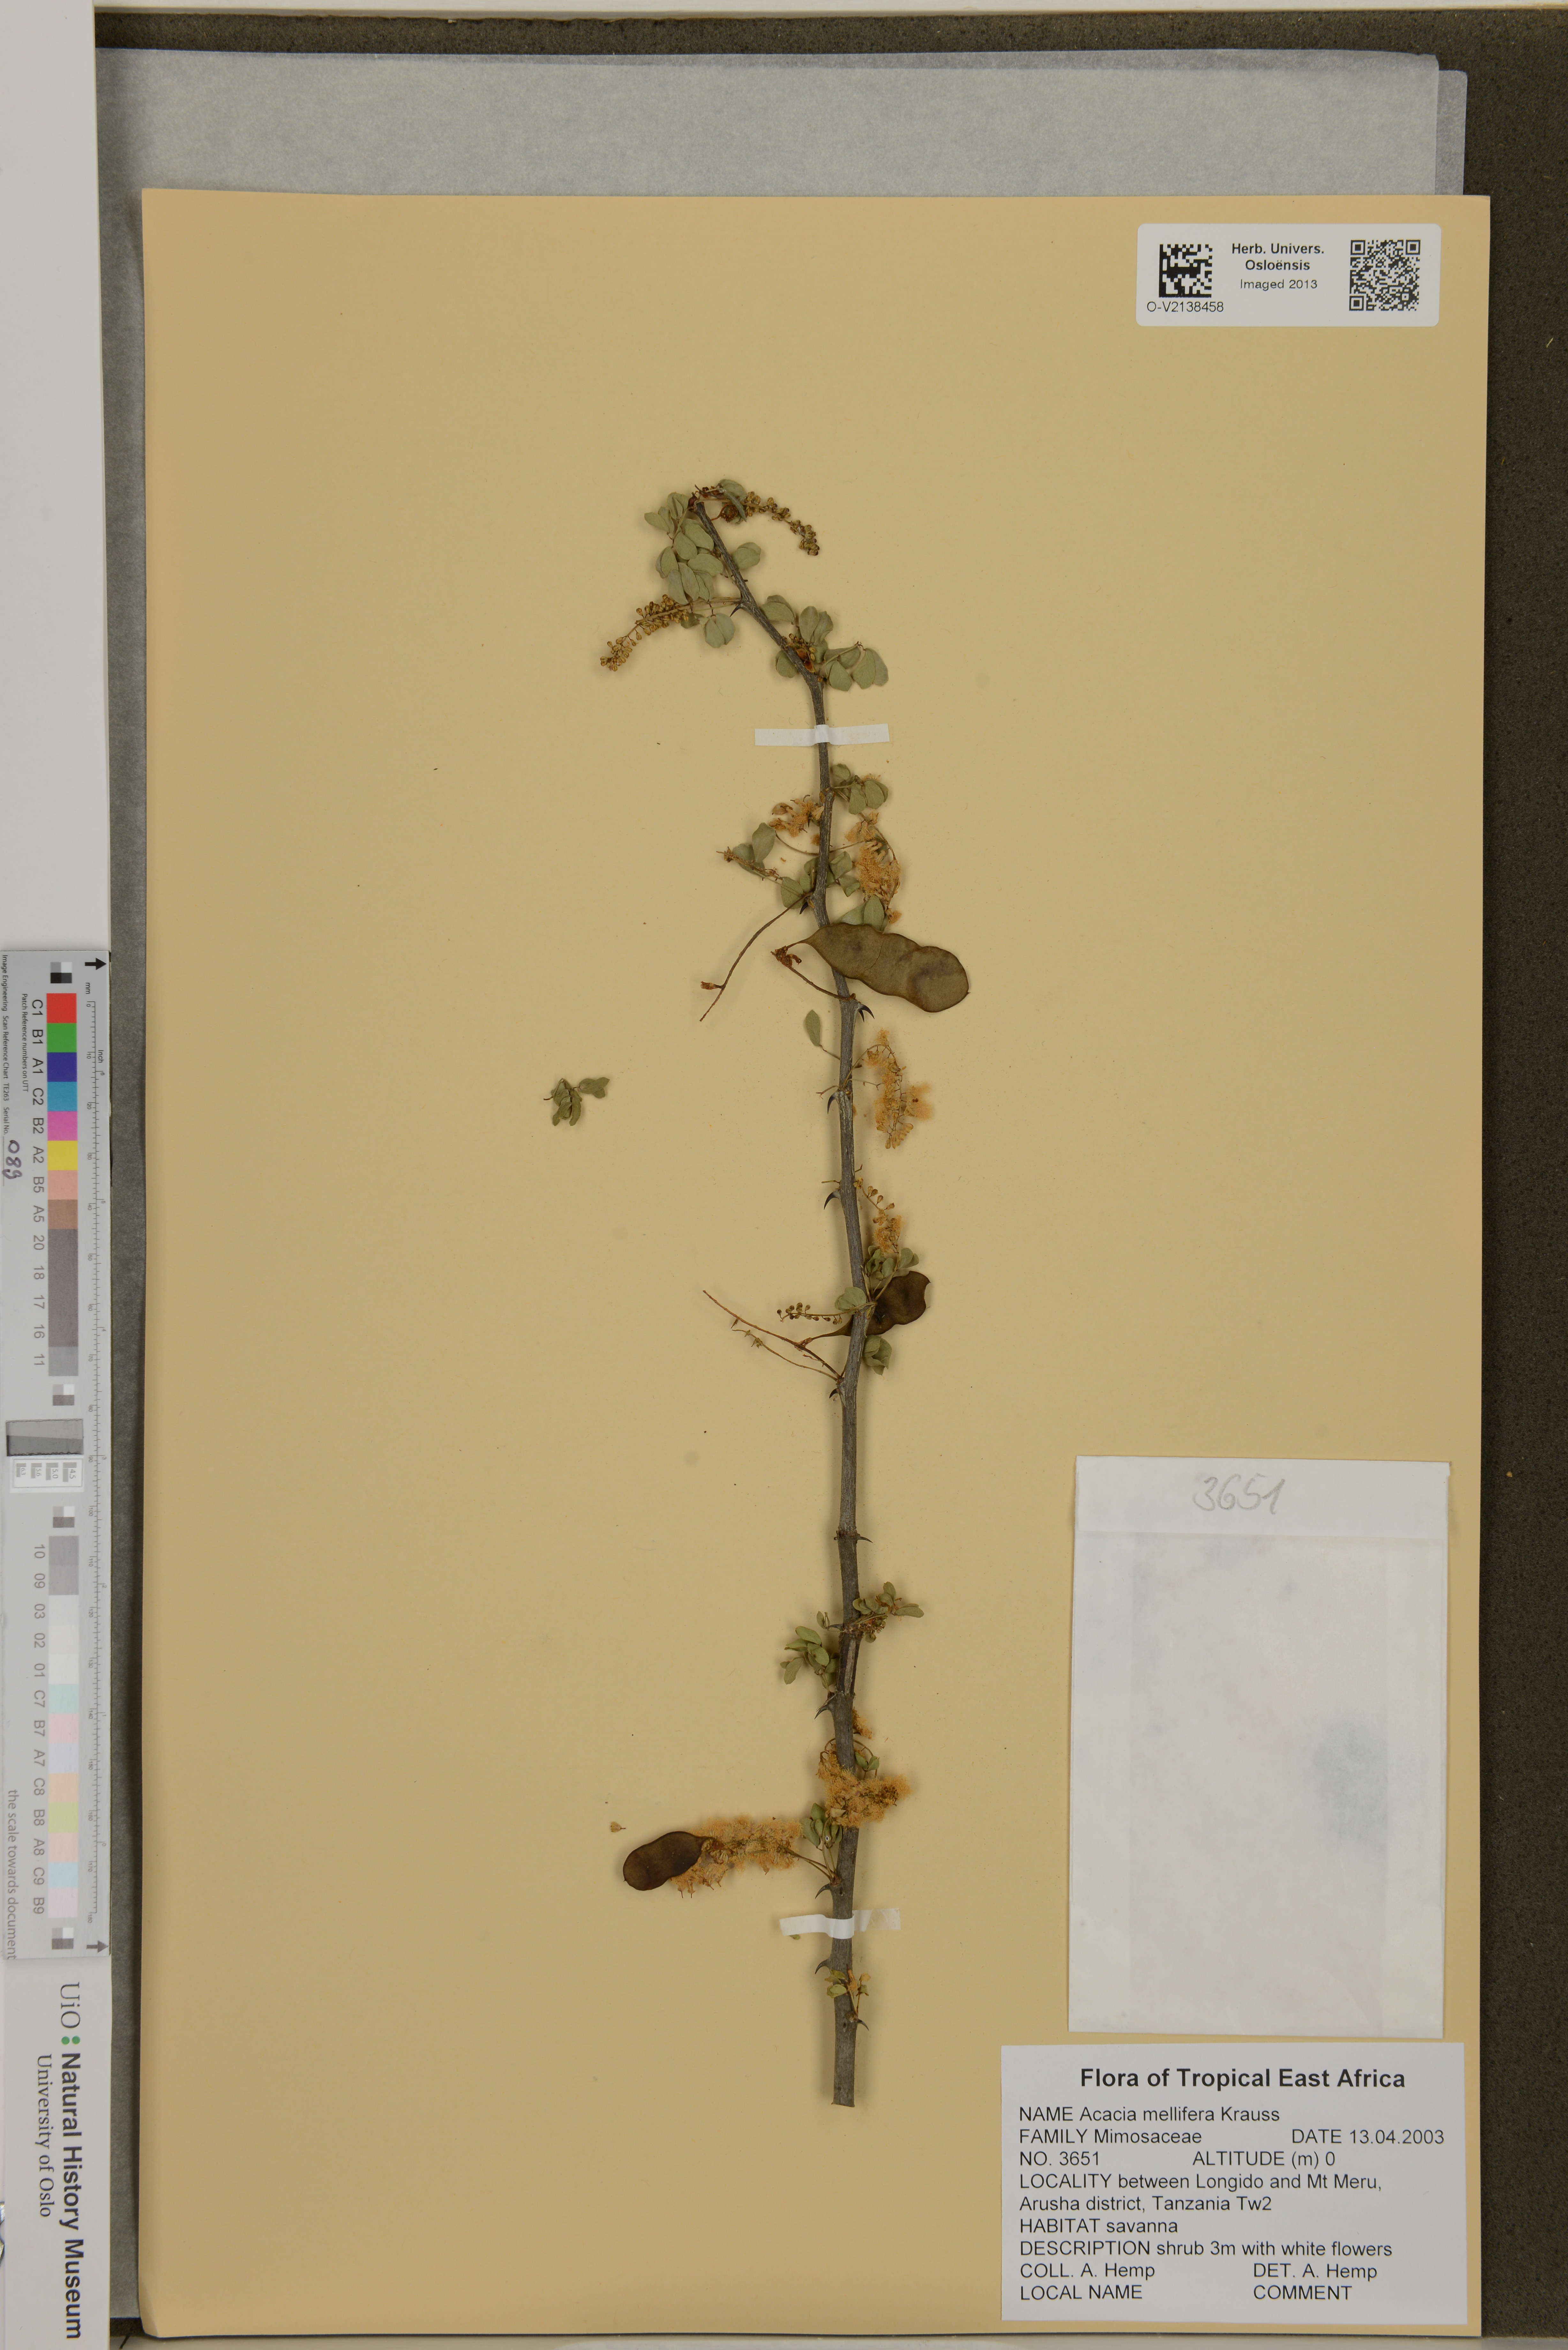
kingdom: Plantae
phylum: Tracheophyta
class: Magnoliopsida
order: Fabales
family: Fabaceae
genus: Senegalia
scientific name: Senegalia mellifera
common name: Hookthorn
